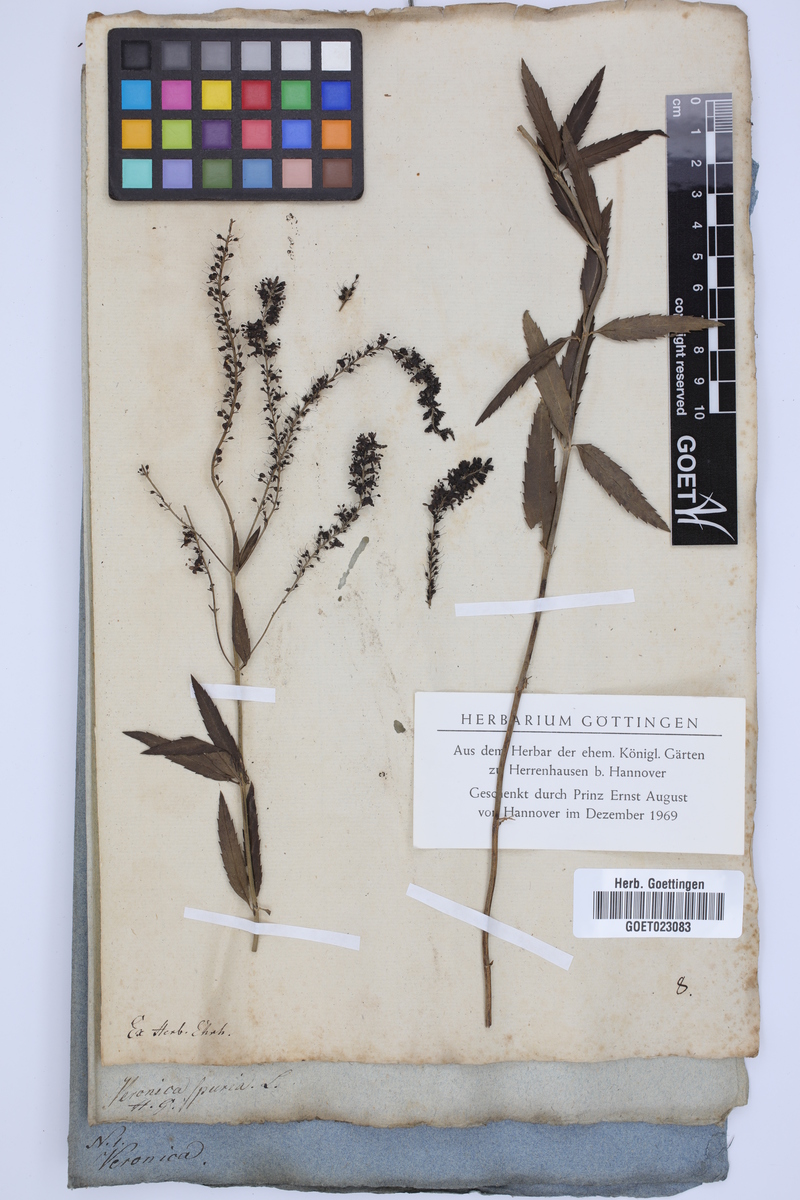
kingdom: Plantae
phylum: Tracheophyta
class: Magnoliopsida
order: Lamiales
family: Plantaginaceae
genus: Veronica
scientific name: Veronica spuria
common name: Bastard speedwell
